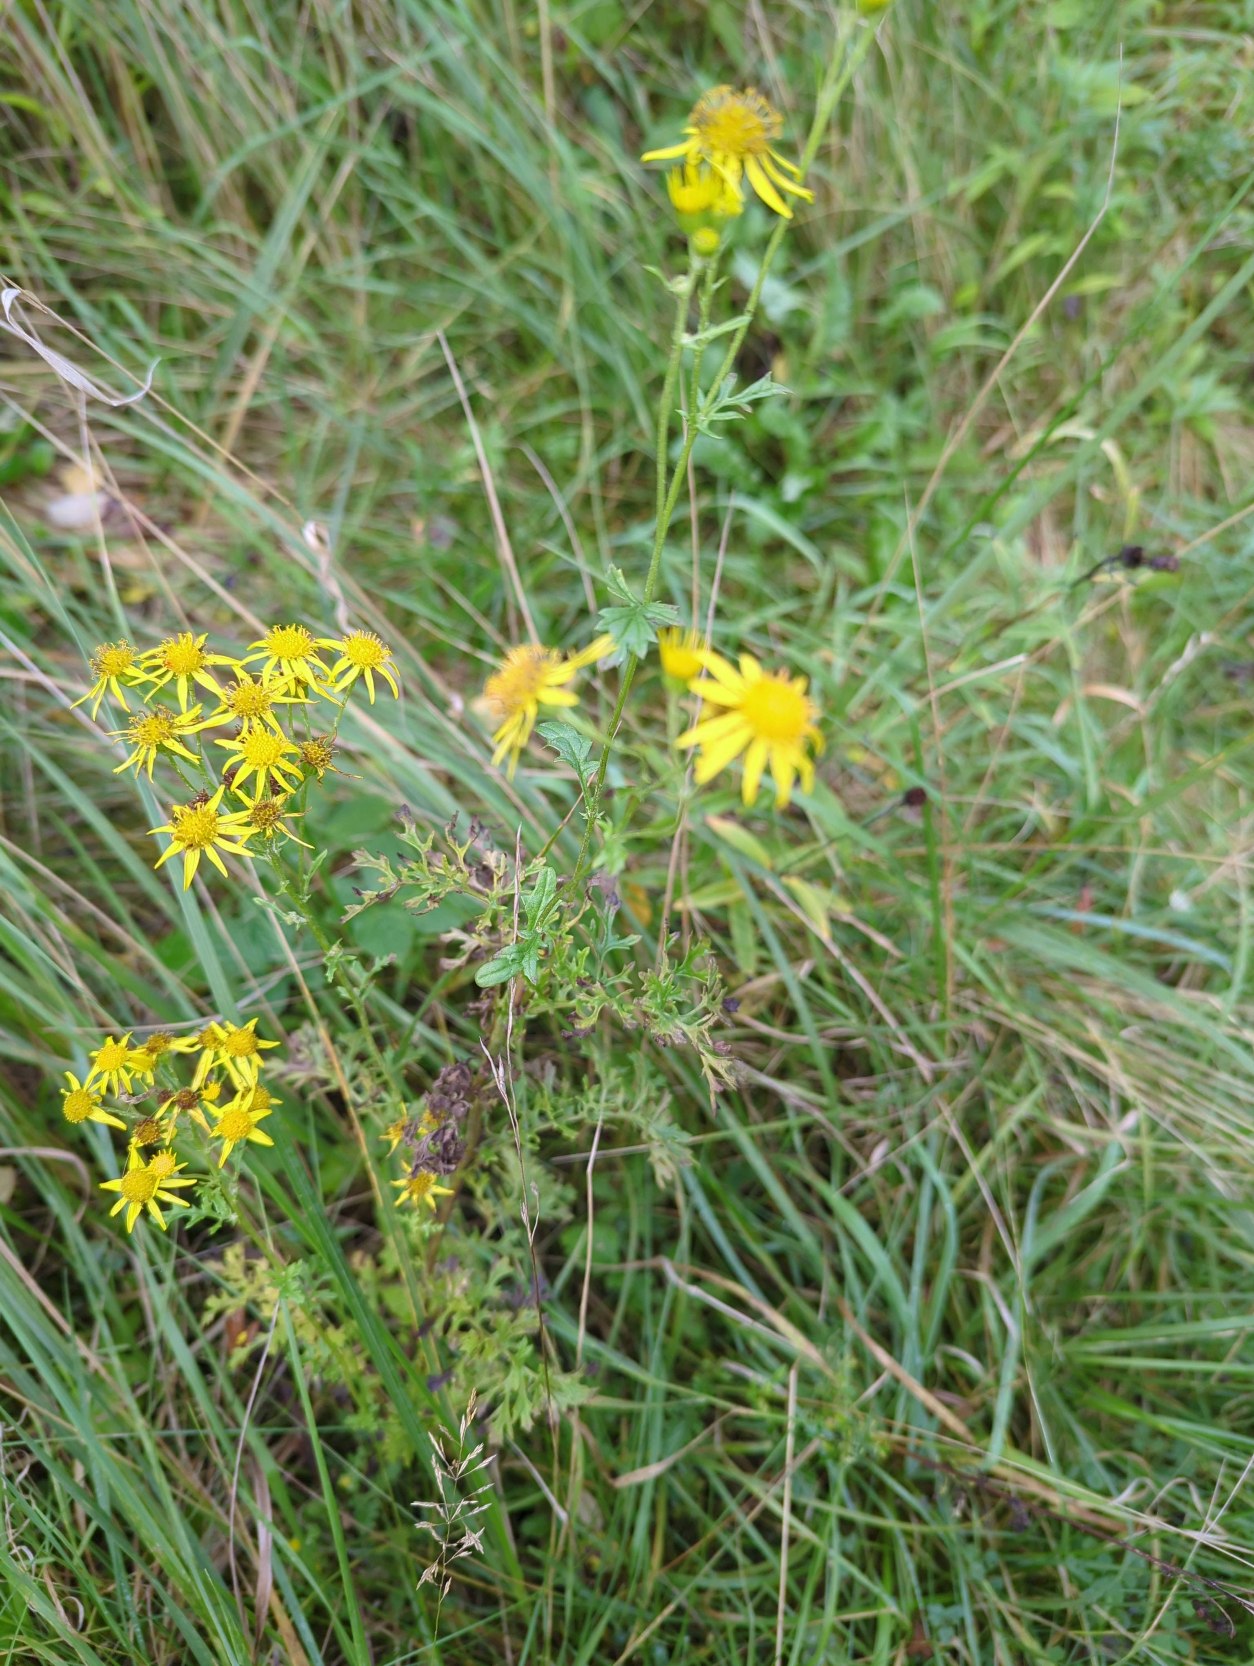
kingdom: Plantae
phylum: Tracheophyta
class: Magnoliopsida
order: Asterales
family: Asteraceae
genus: Jacobaea
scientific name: Jacobaea vulgaris
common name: Eng-brandbæger
